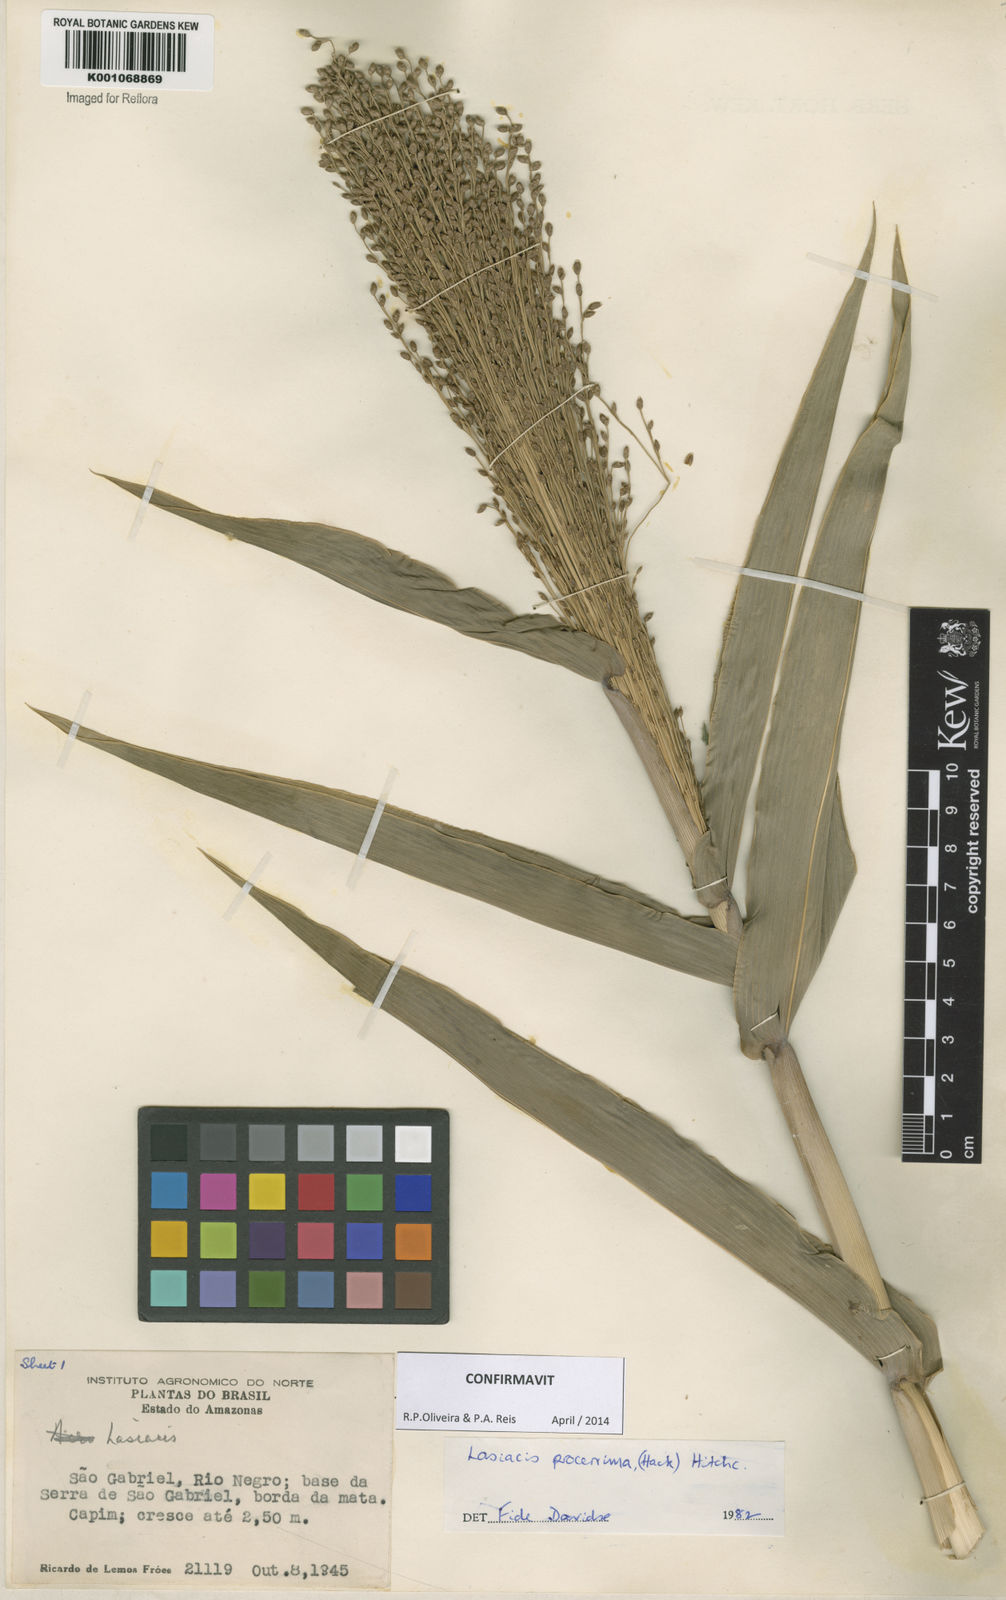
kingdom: Plantae
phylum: Tracheophyta
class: Liliopsida
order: Poales
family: Poaceae
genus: Lasiacis
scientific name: Lasiacis
